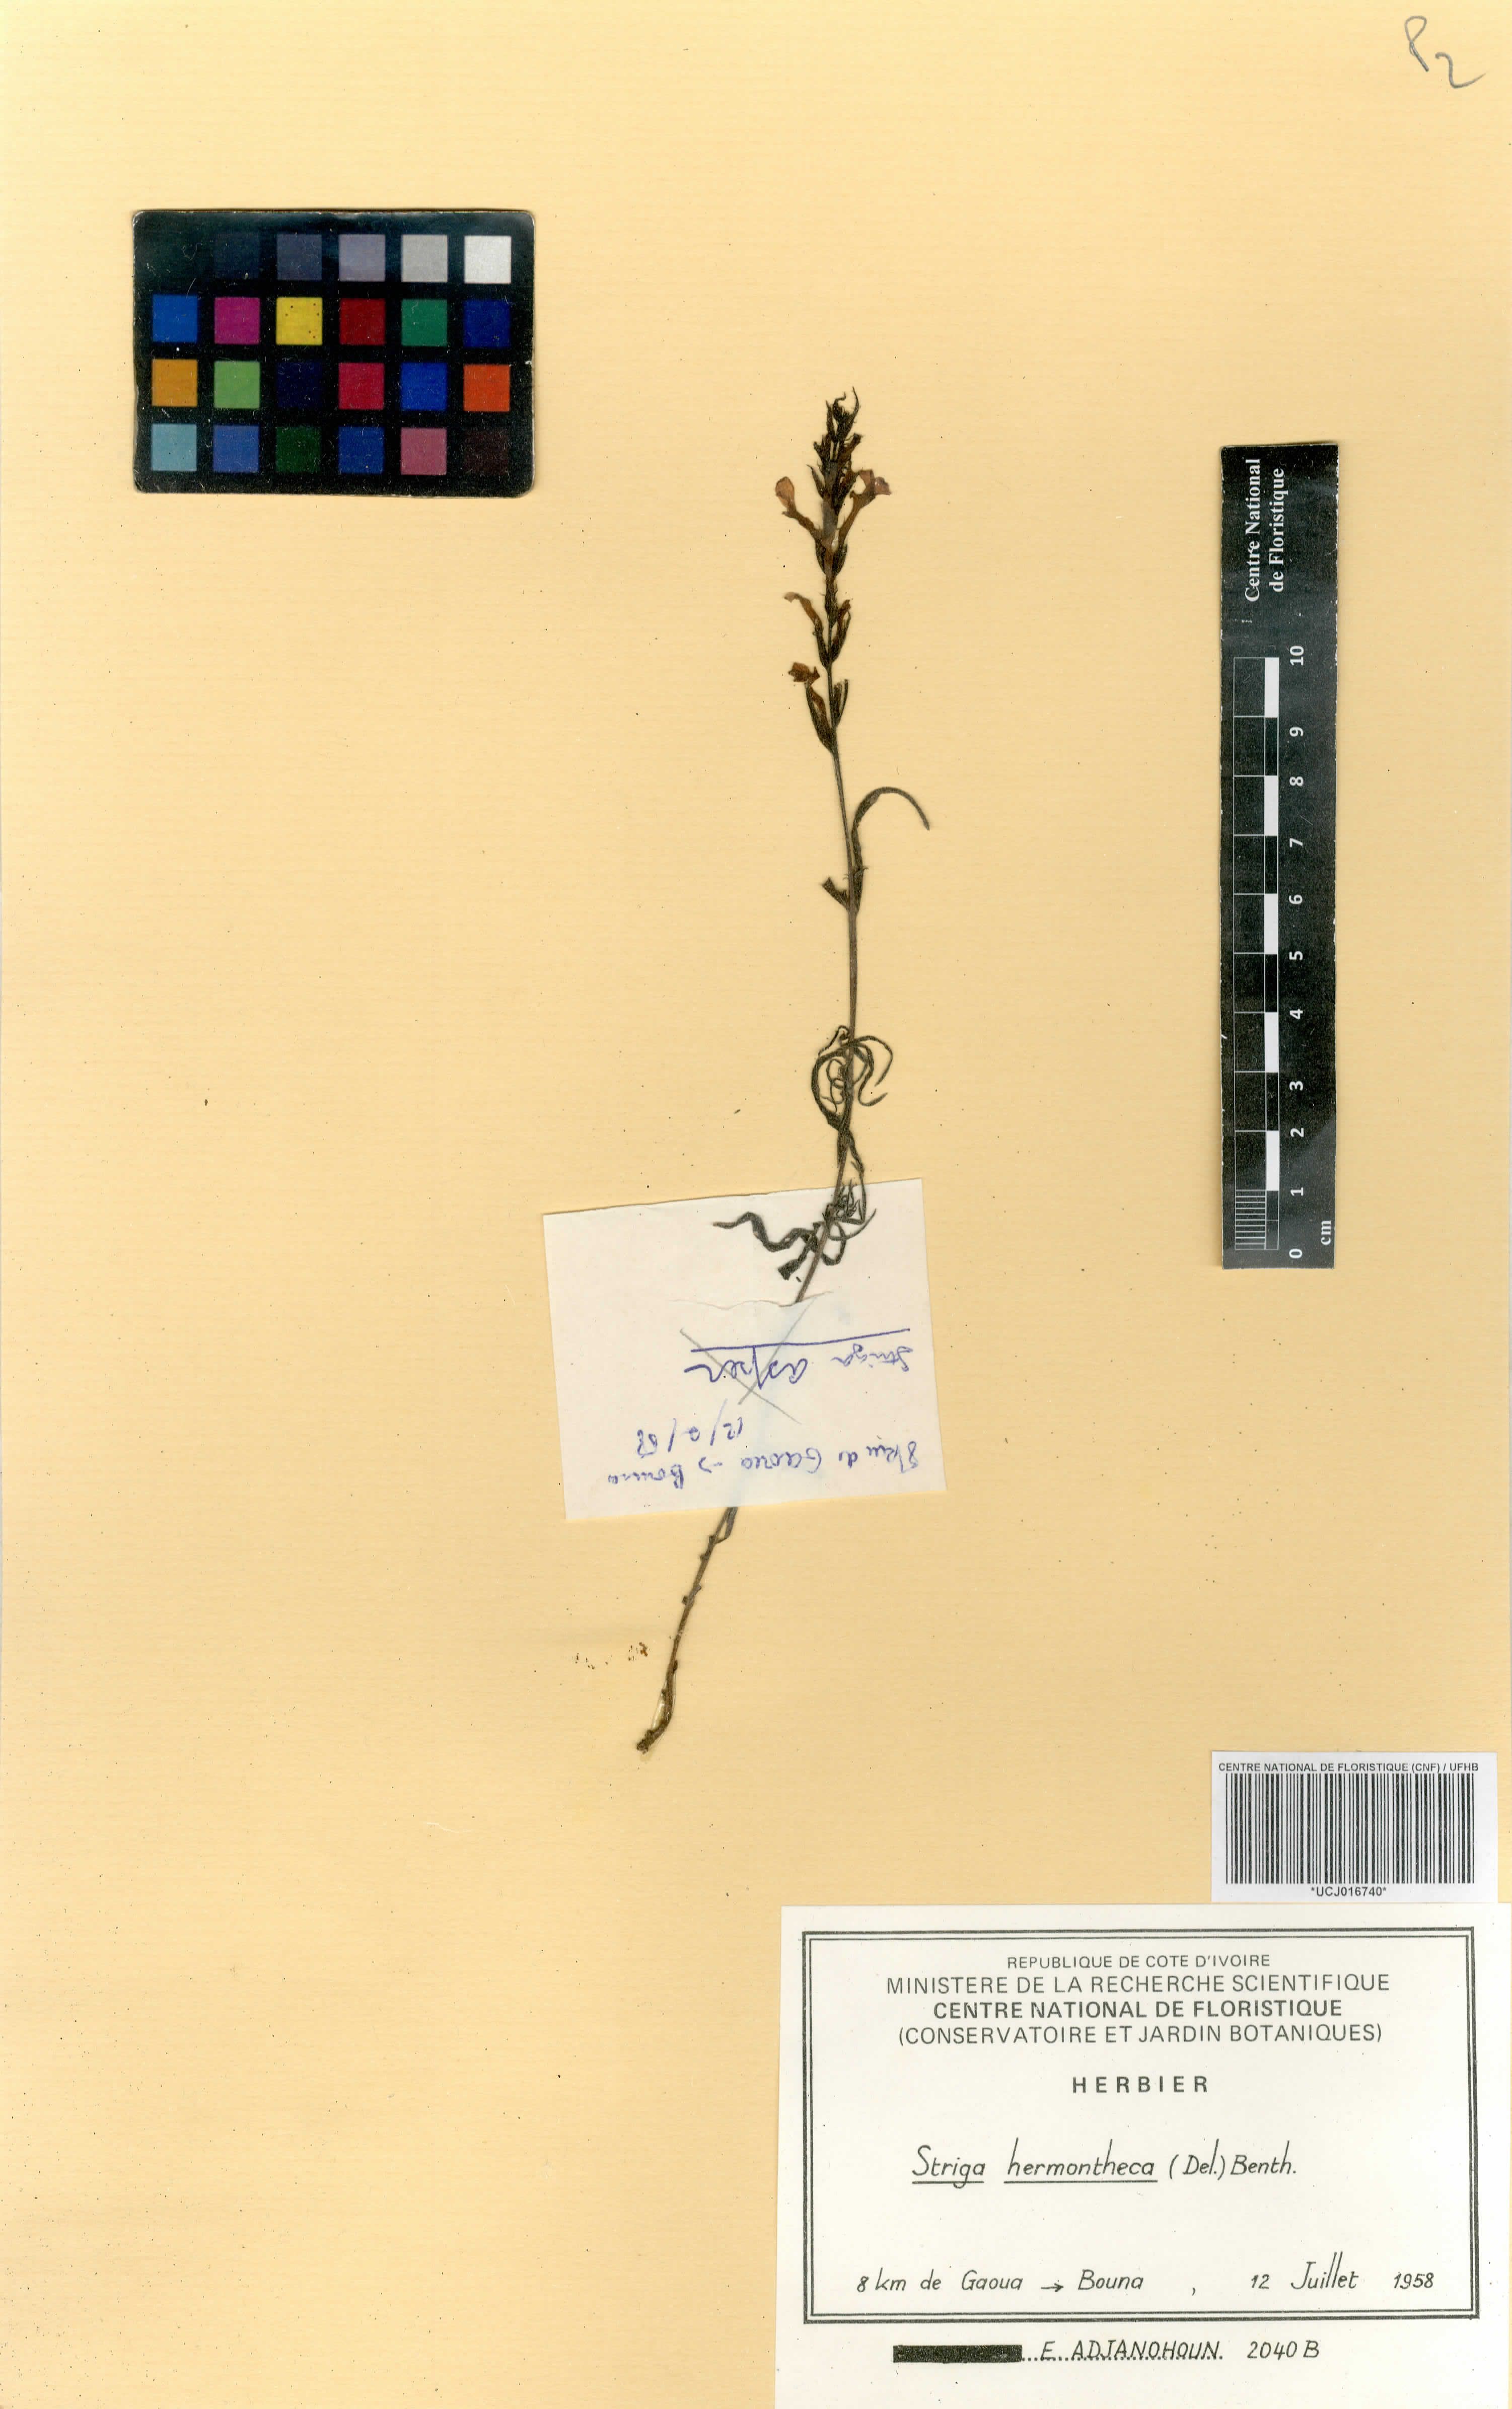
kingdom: Plantae
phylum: Tracheophyta
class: Magnoliopsida
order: Lamiales
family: Orobanchaceae
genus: Striga
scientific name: Striga hermonthica
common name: Purple witchweed
